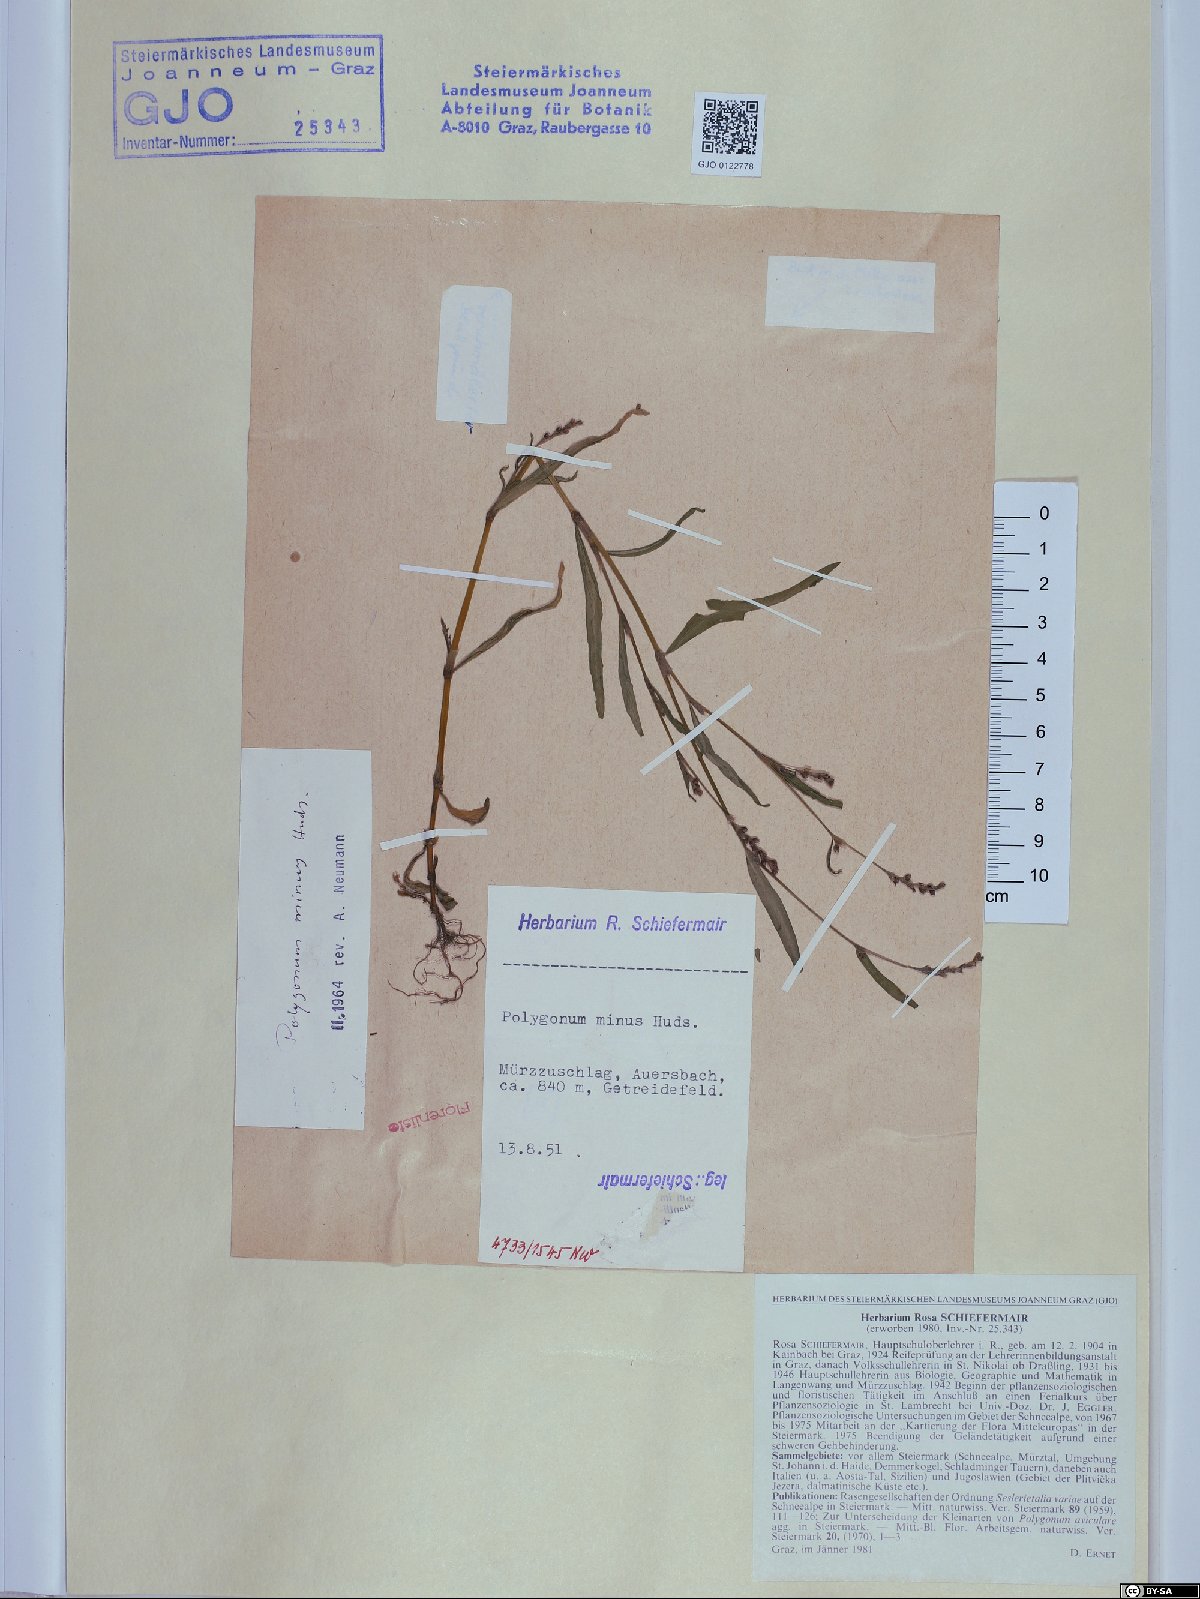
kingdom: Plantae
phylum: Tracheophyta
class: Magnoliopsida
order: Caryophyllales
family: Polygonaceae
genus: Persicaria
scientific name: Persicaria minor
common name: Small water-pepper
